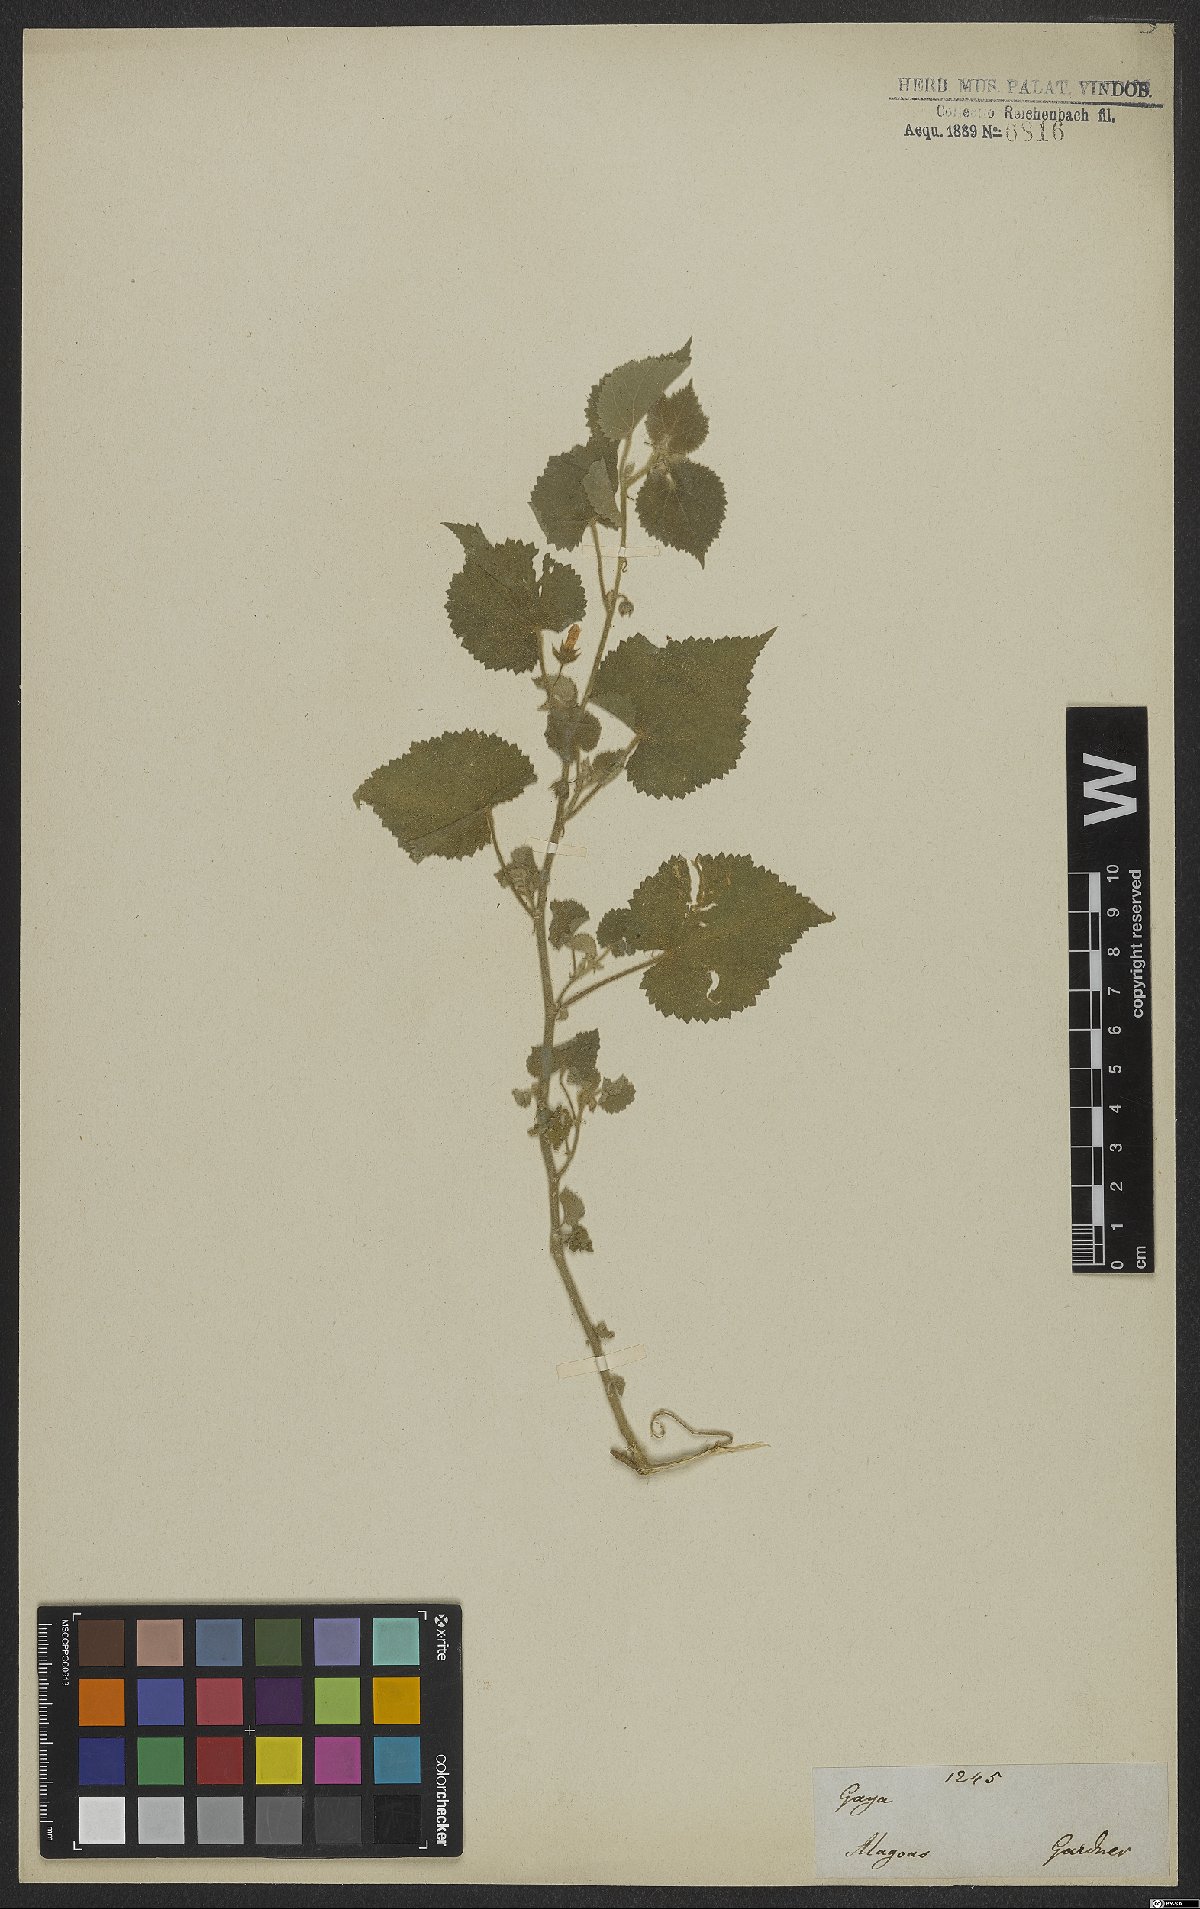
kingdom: Plantae
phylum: Tracheophyta
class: Magnoliopsida
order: Malvales
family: Malvaceae
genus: Gaya
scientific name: Gaya
